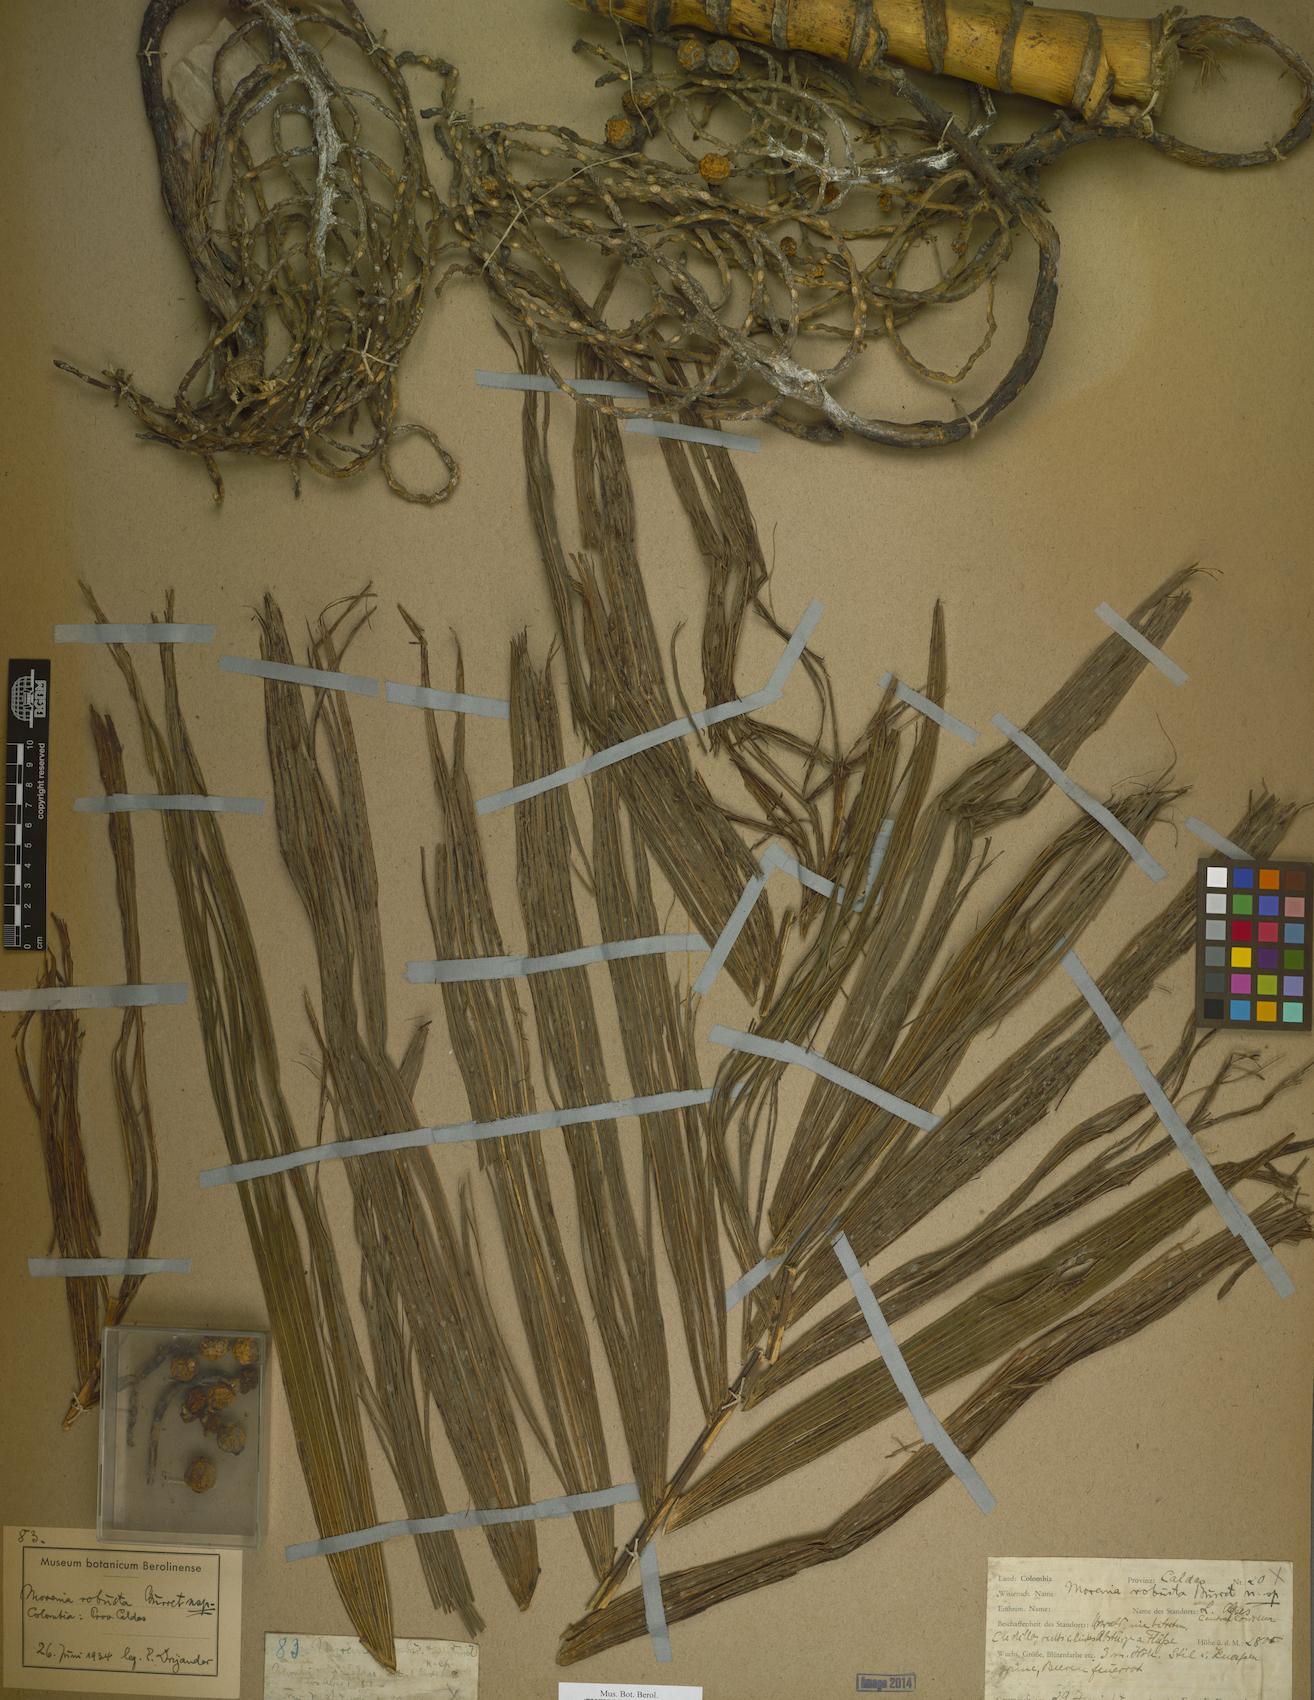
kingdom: Plantae
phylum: Tracheophyta
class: Liliopsida
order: Arecales
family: Arecaceae
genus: Chamaedorea
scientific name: Chamaedorea linearis
